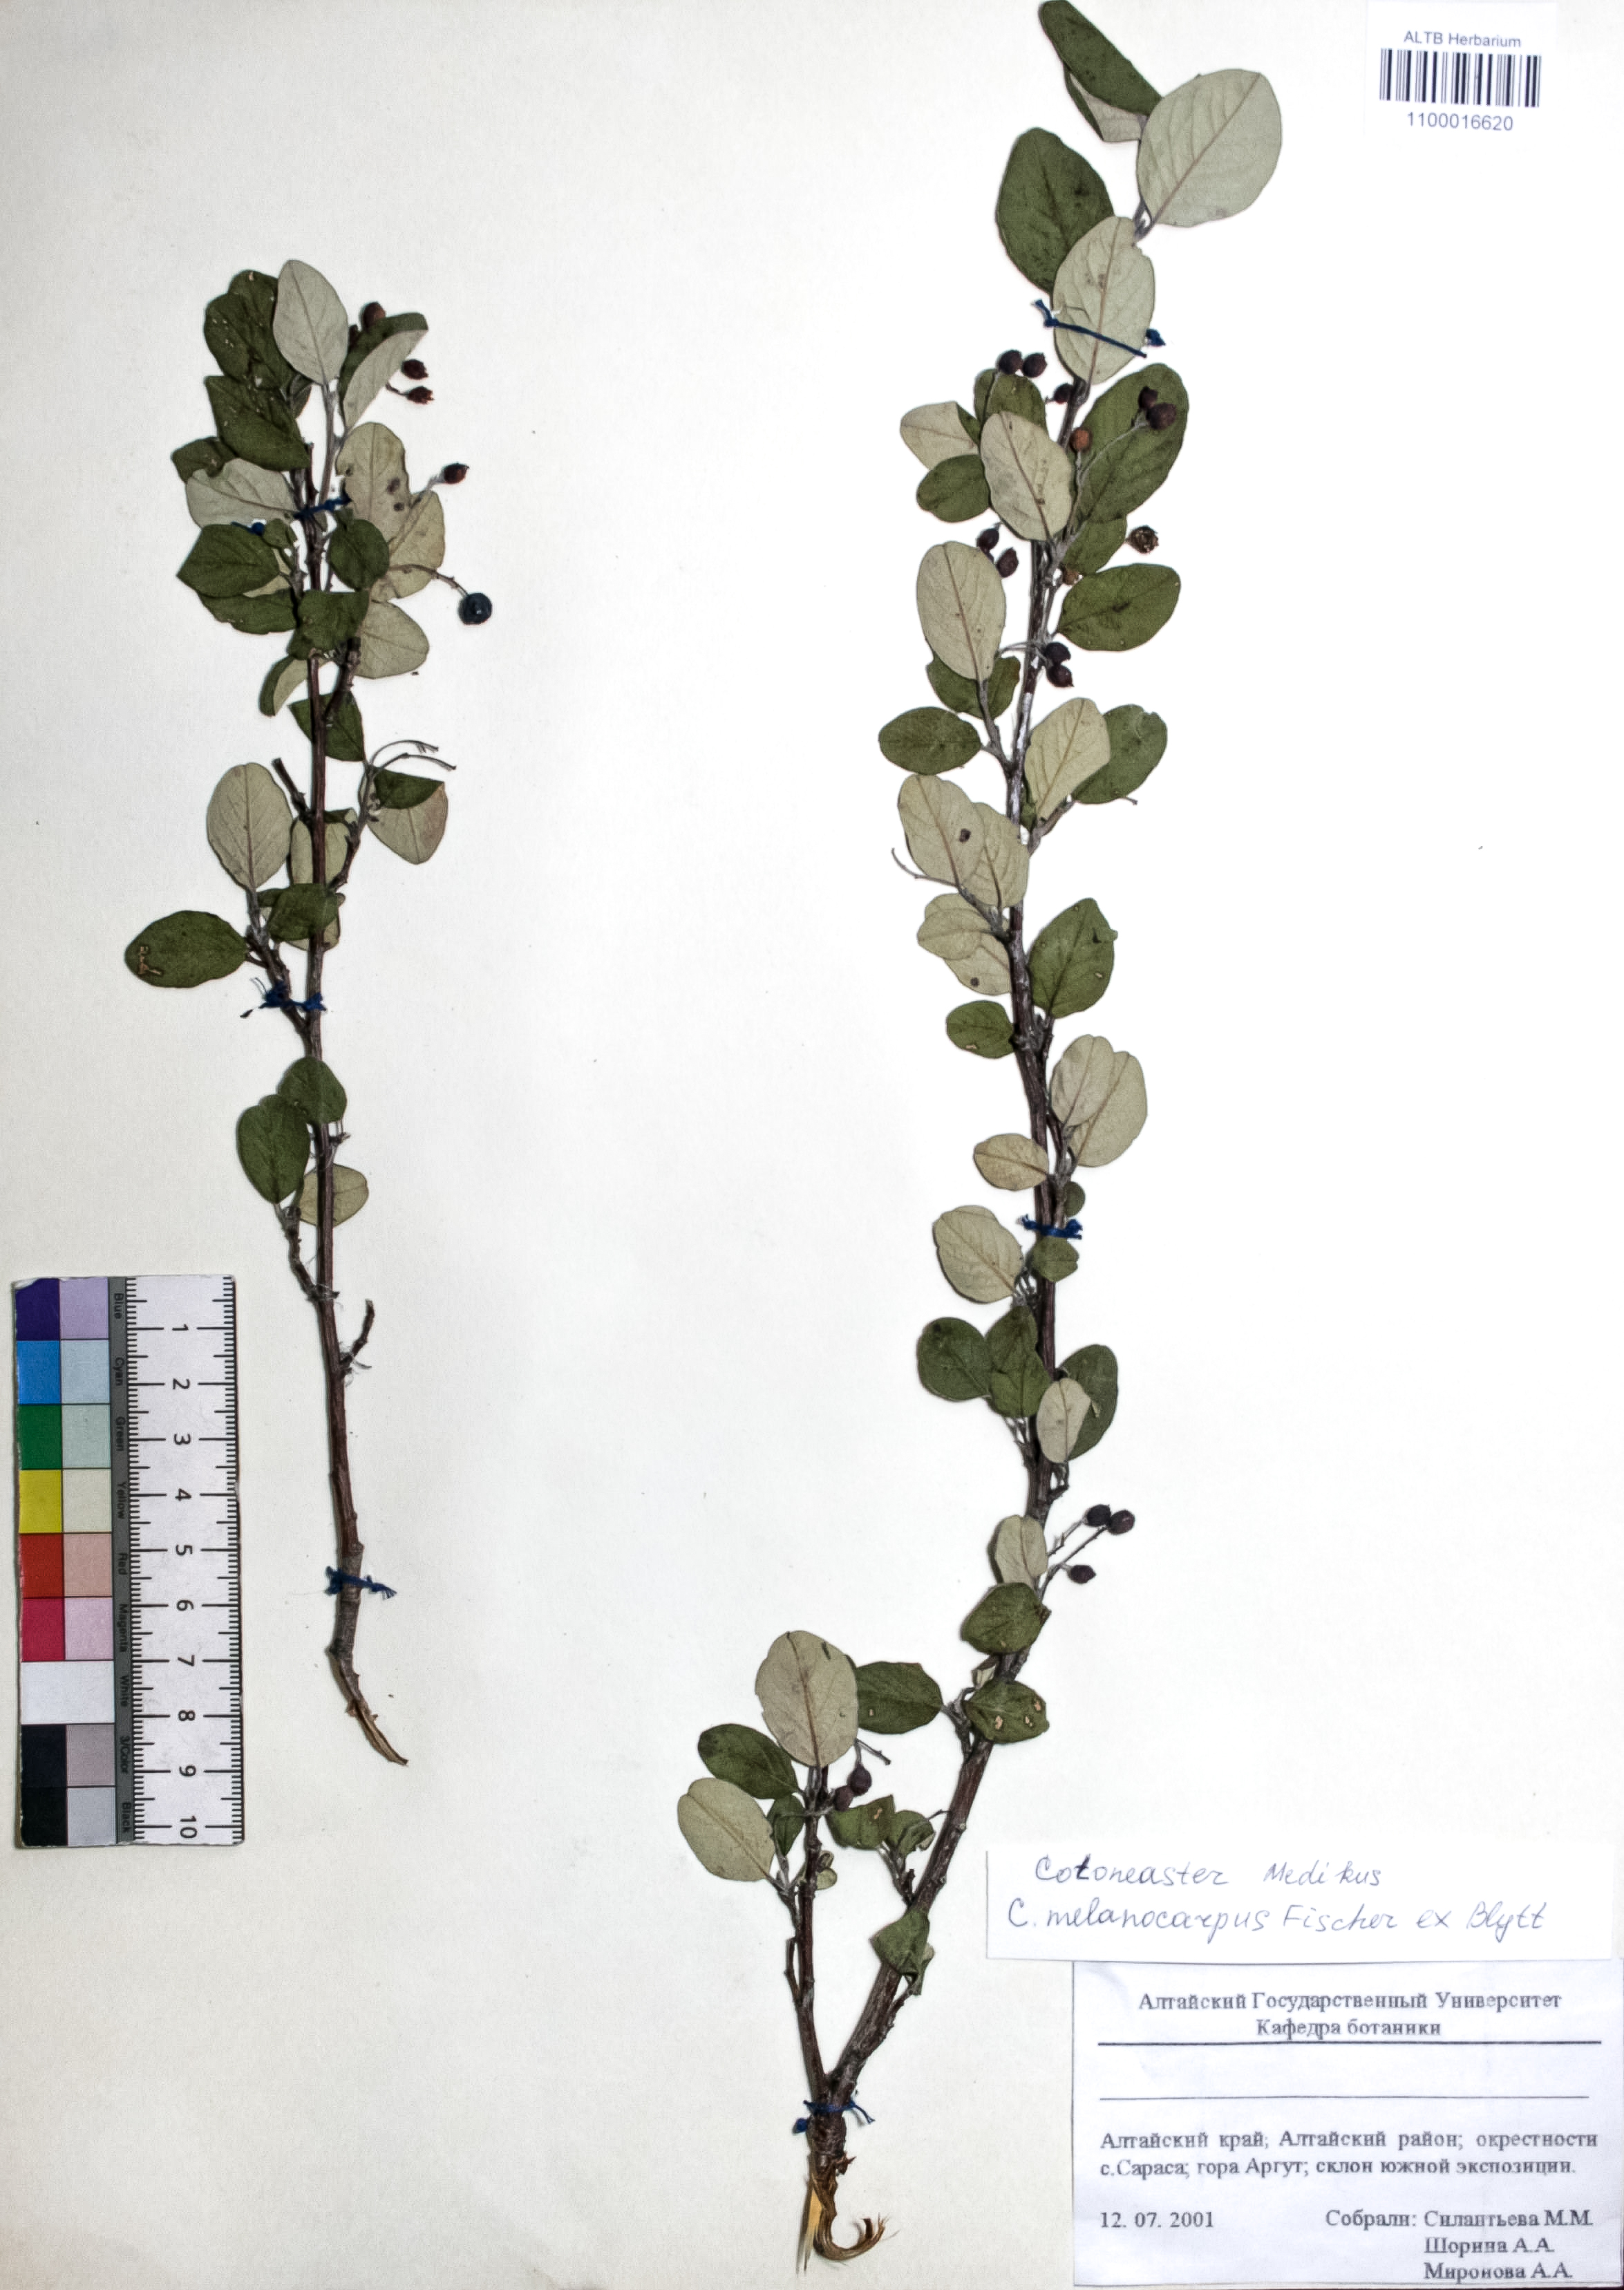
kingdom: Plantae
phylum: Tracheophyta
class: Magnoliopsida
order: Rosales
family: Rosaceae
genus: Cotoneaster
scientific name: Cotoneaster niger
